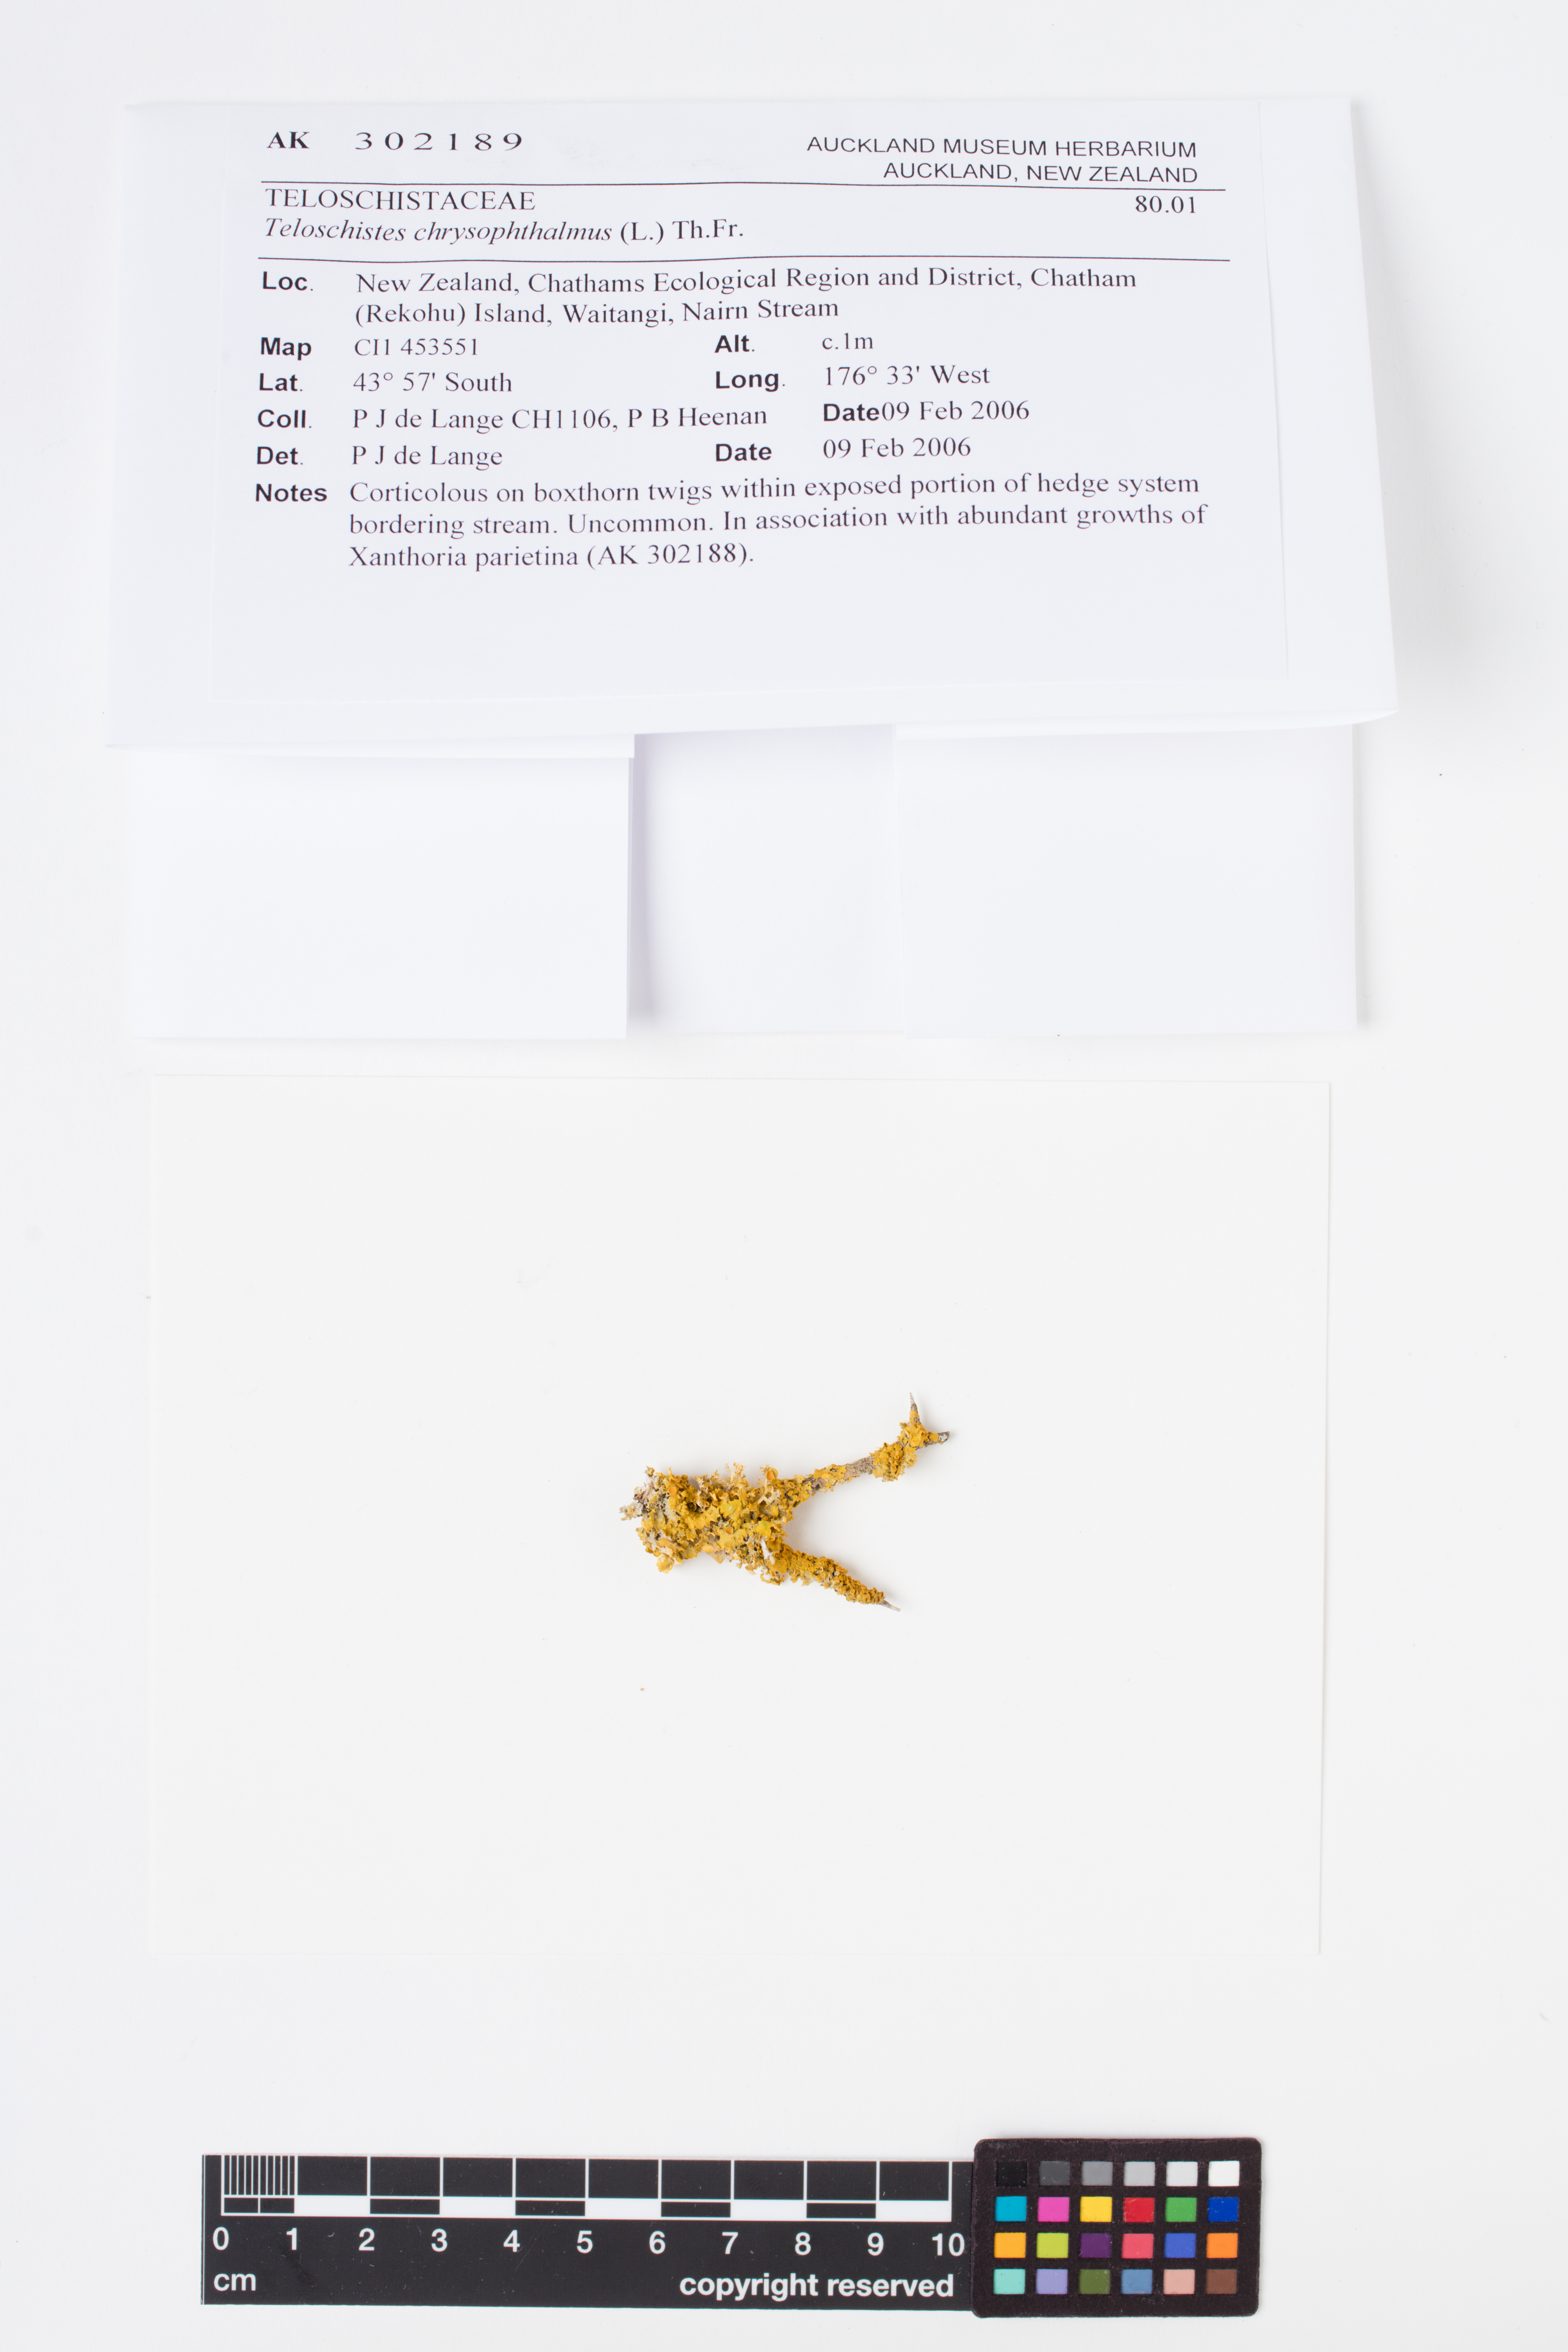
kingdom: Fungi
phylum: Ascomycota
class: Lecanoromycetes
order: Teloschistales
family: Teloschistaceae
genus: Niorma
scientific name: Niorma chrysophthalma
